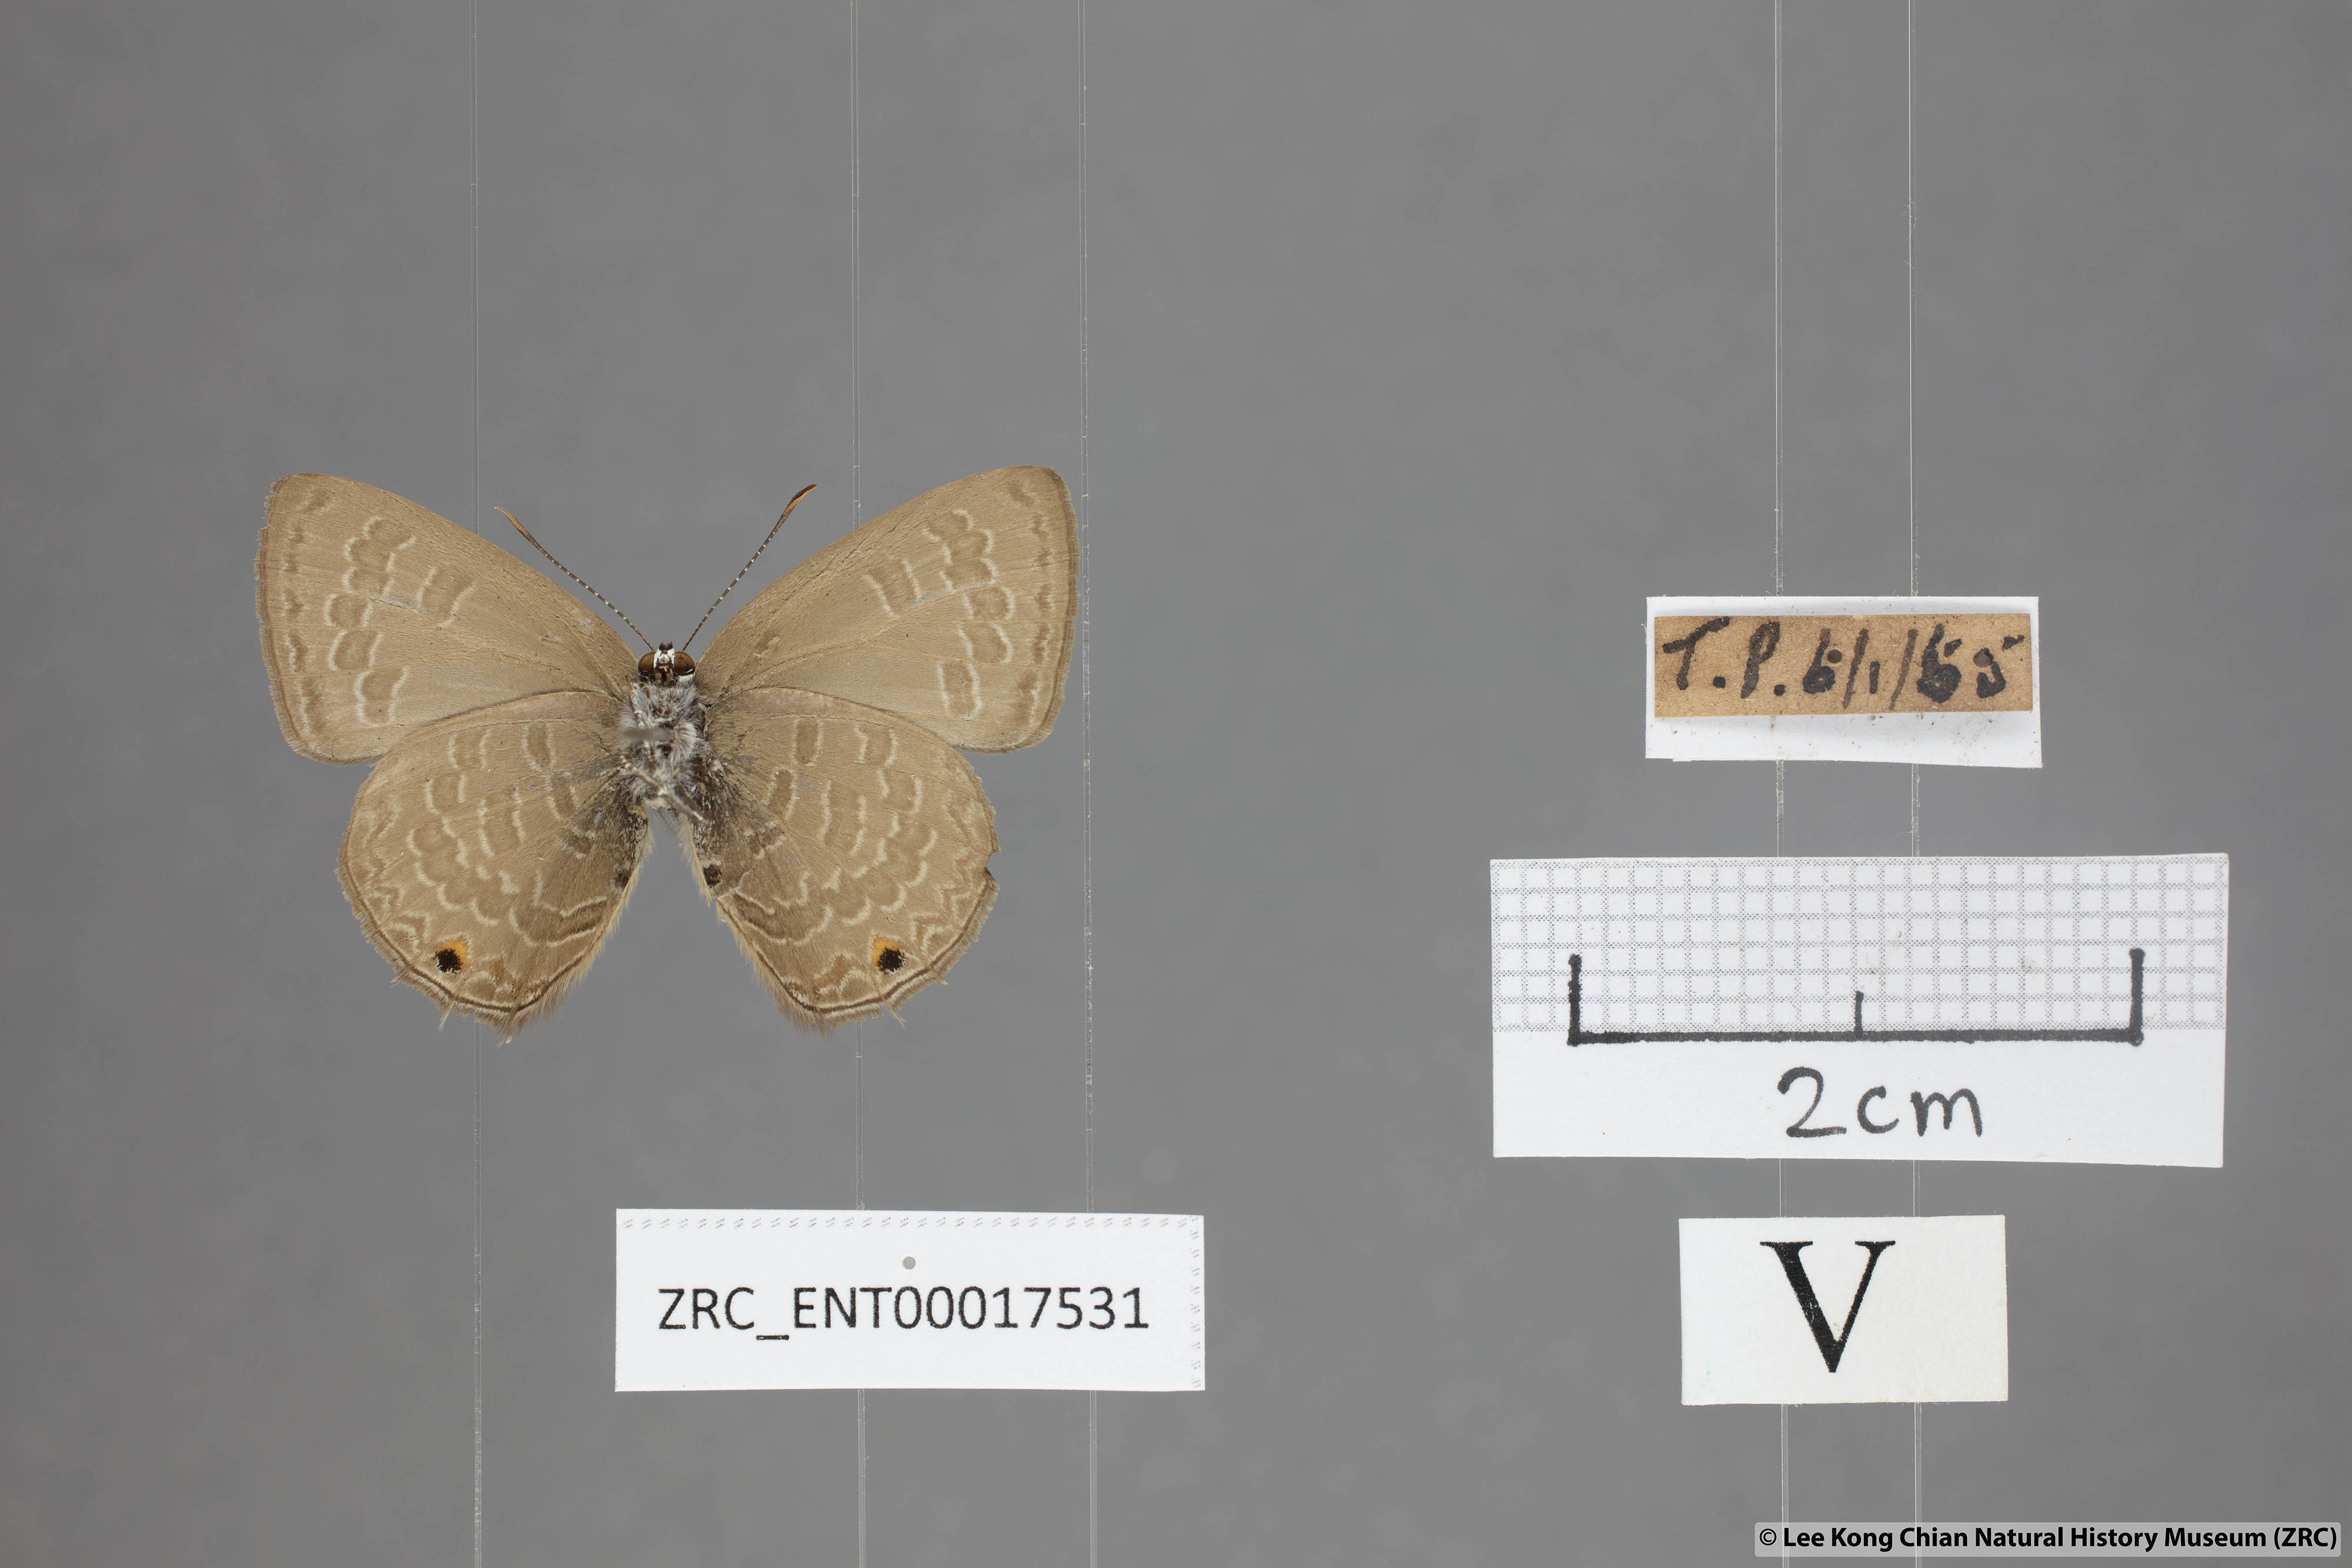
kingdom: Animalia
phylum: Arthropoda
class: Insecta
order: Lepidoptera
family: Lycaenidae
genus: Anthene
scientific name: Anthene emolus
